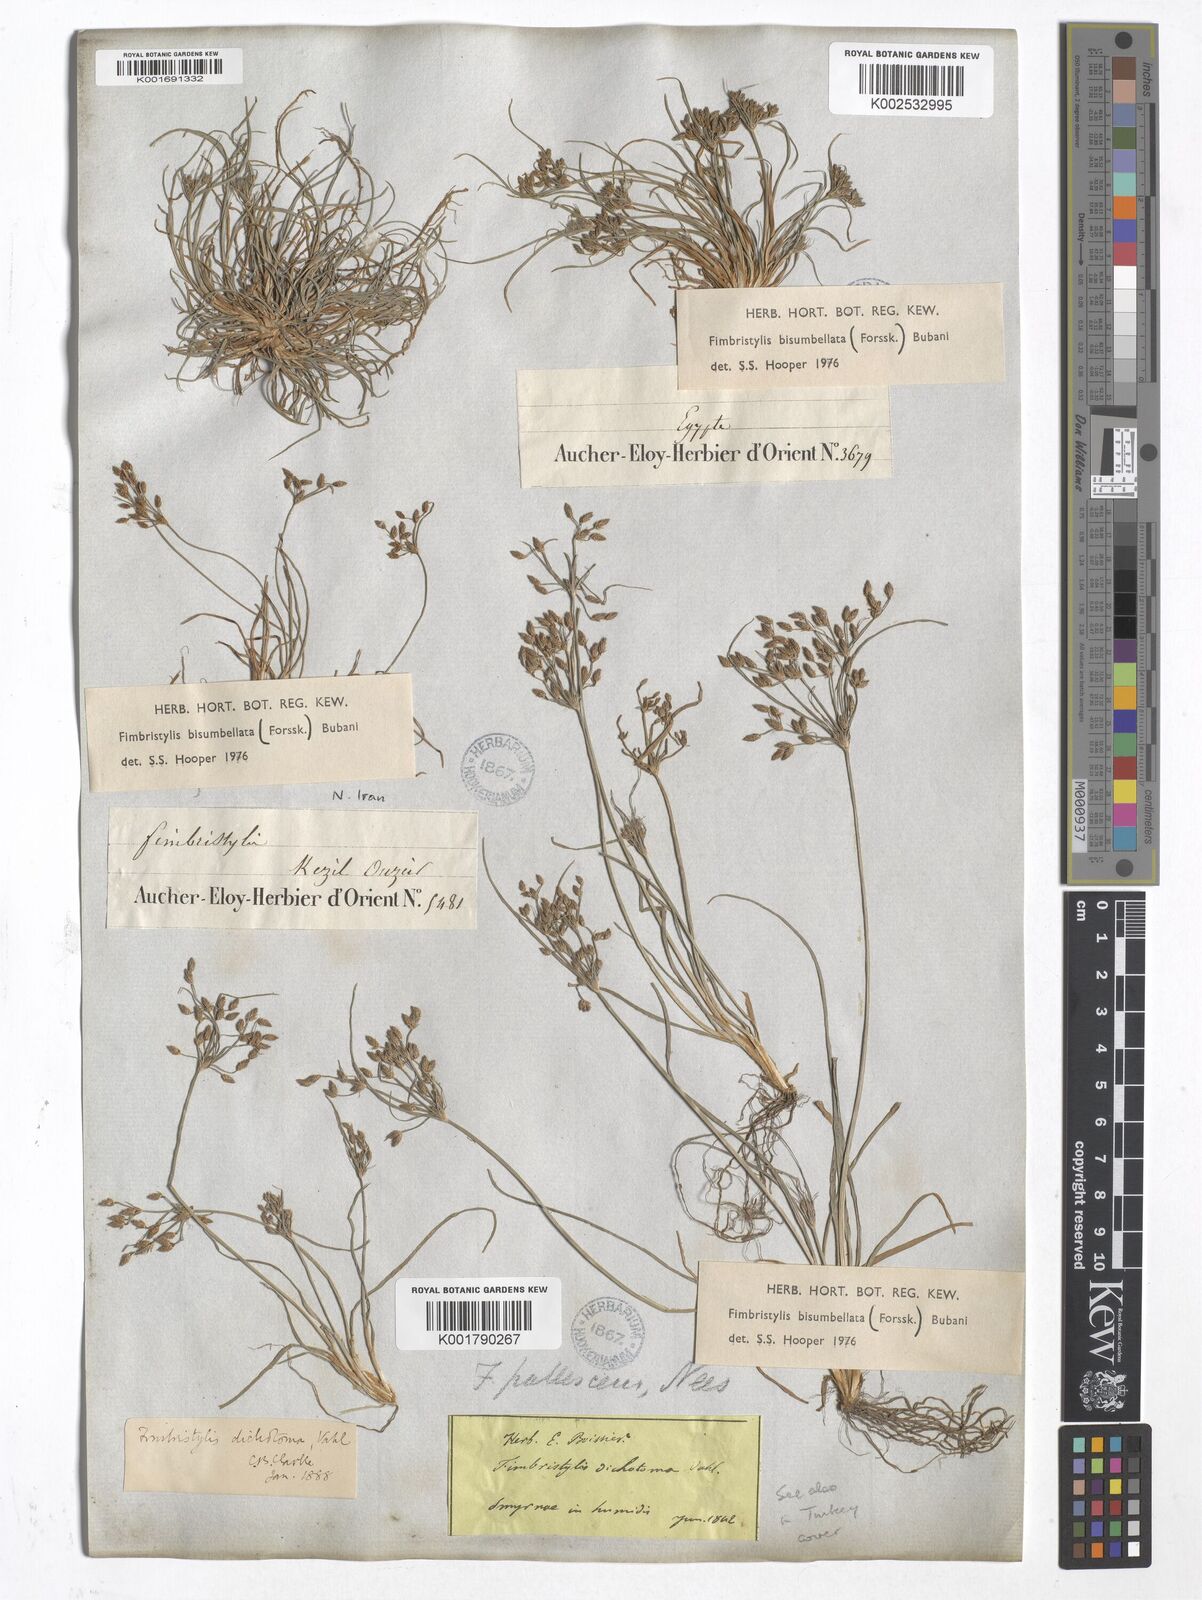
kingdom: Plantae
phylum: Tracheophyta
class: Liliopsida
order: Poales
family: Cyperaceae
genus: Fimbristylis
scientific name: Fimbristylis bisumbellata
